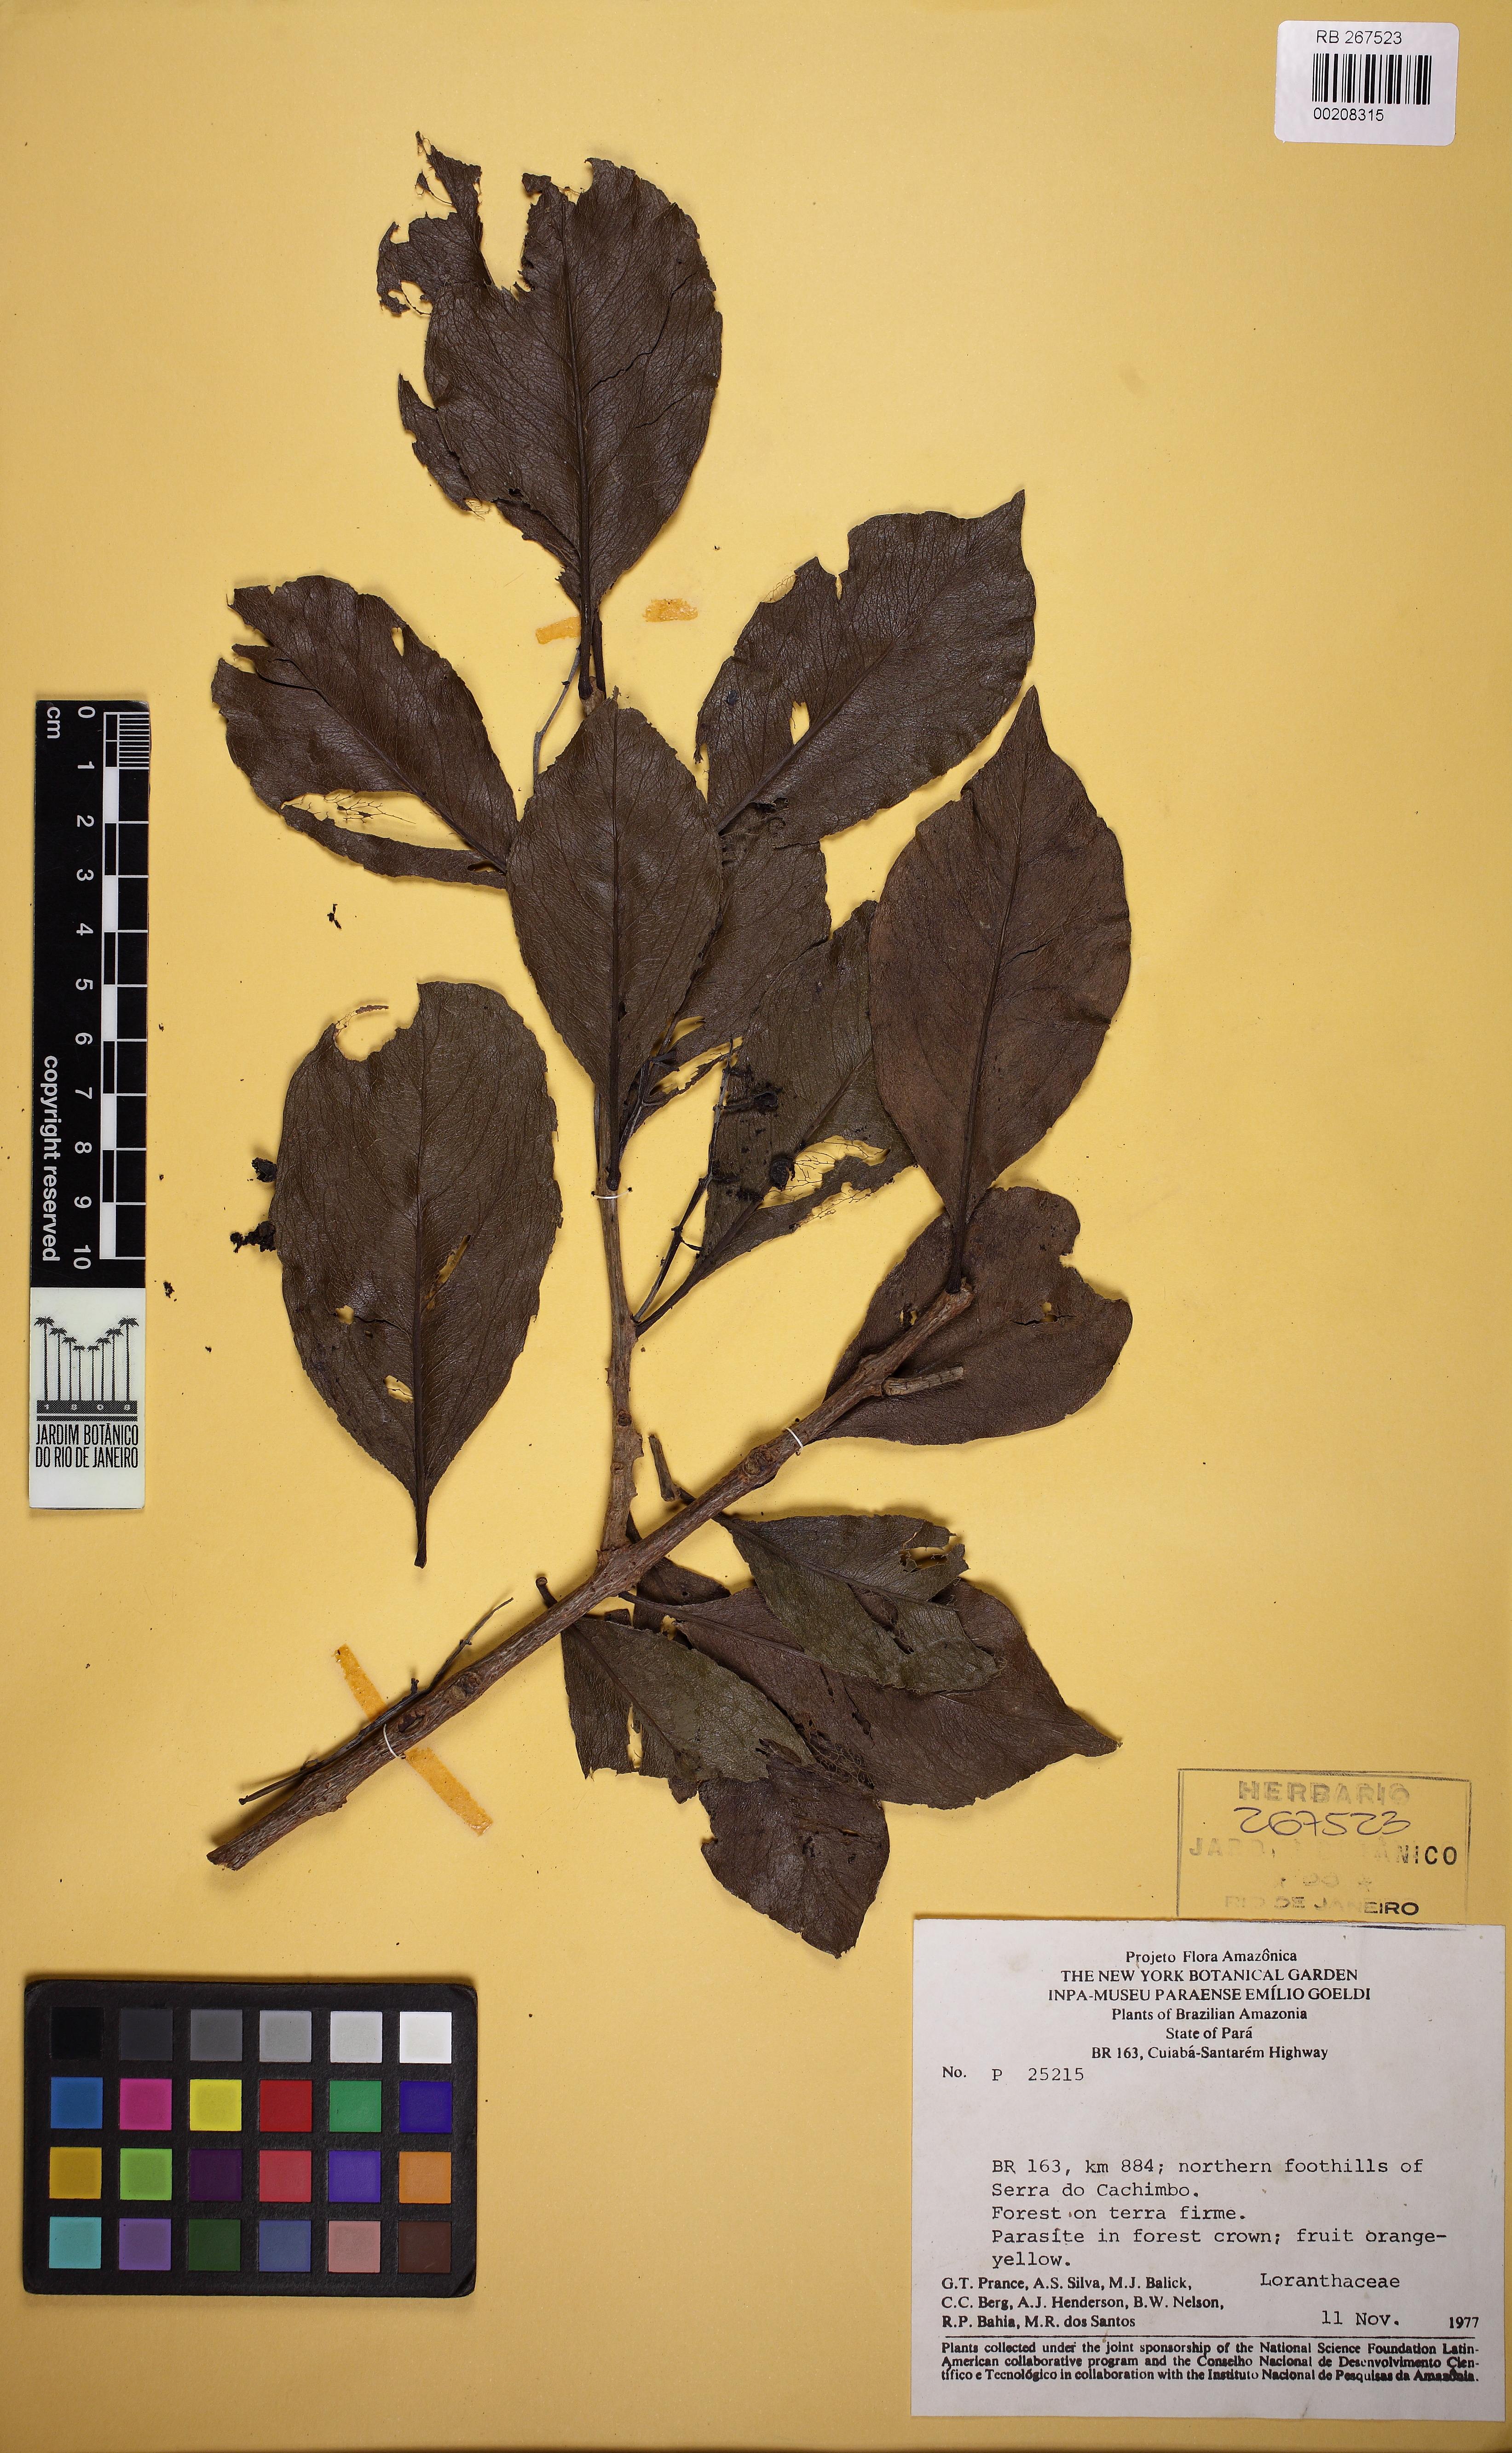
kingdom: Plantae
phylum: Tracheophyta
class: Magnoliopsida
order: Santalales
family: Loranthaceae
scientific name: Loranthaceae
